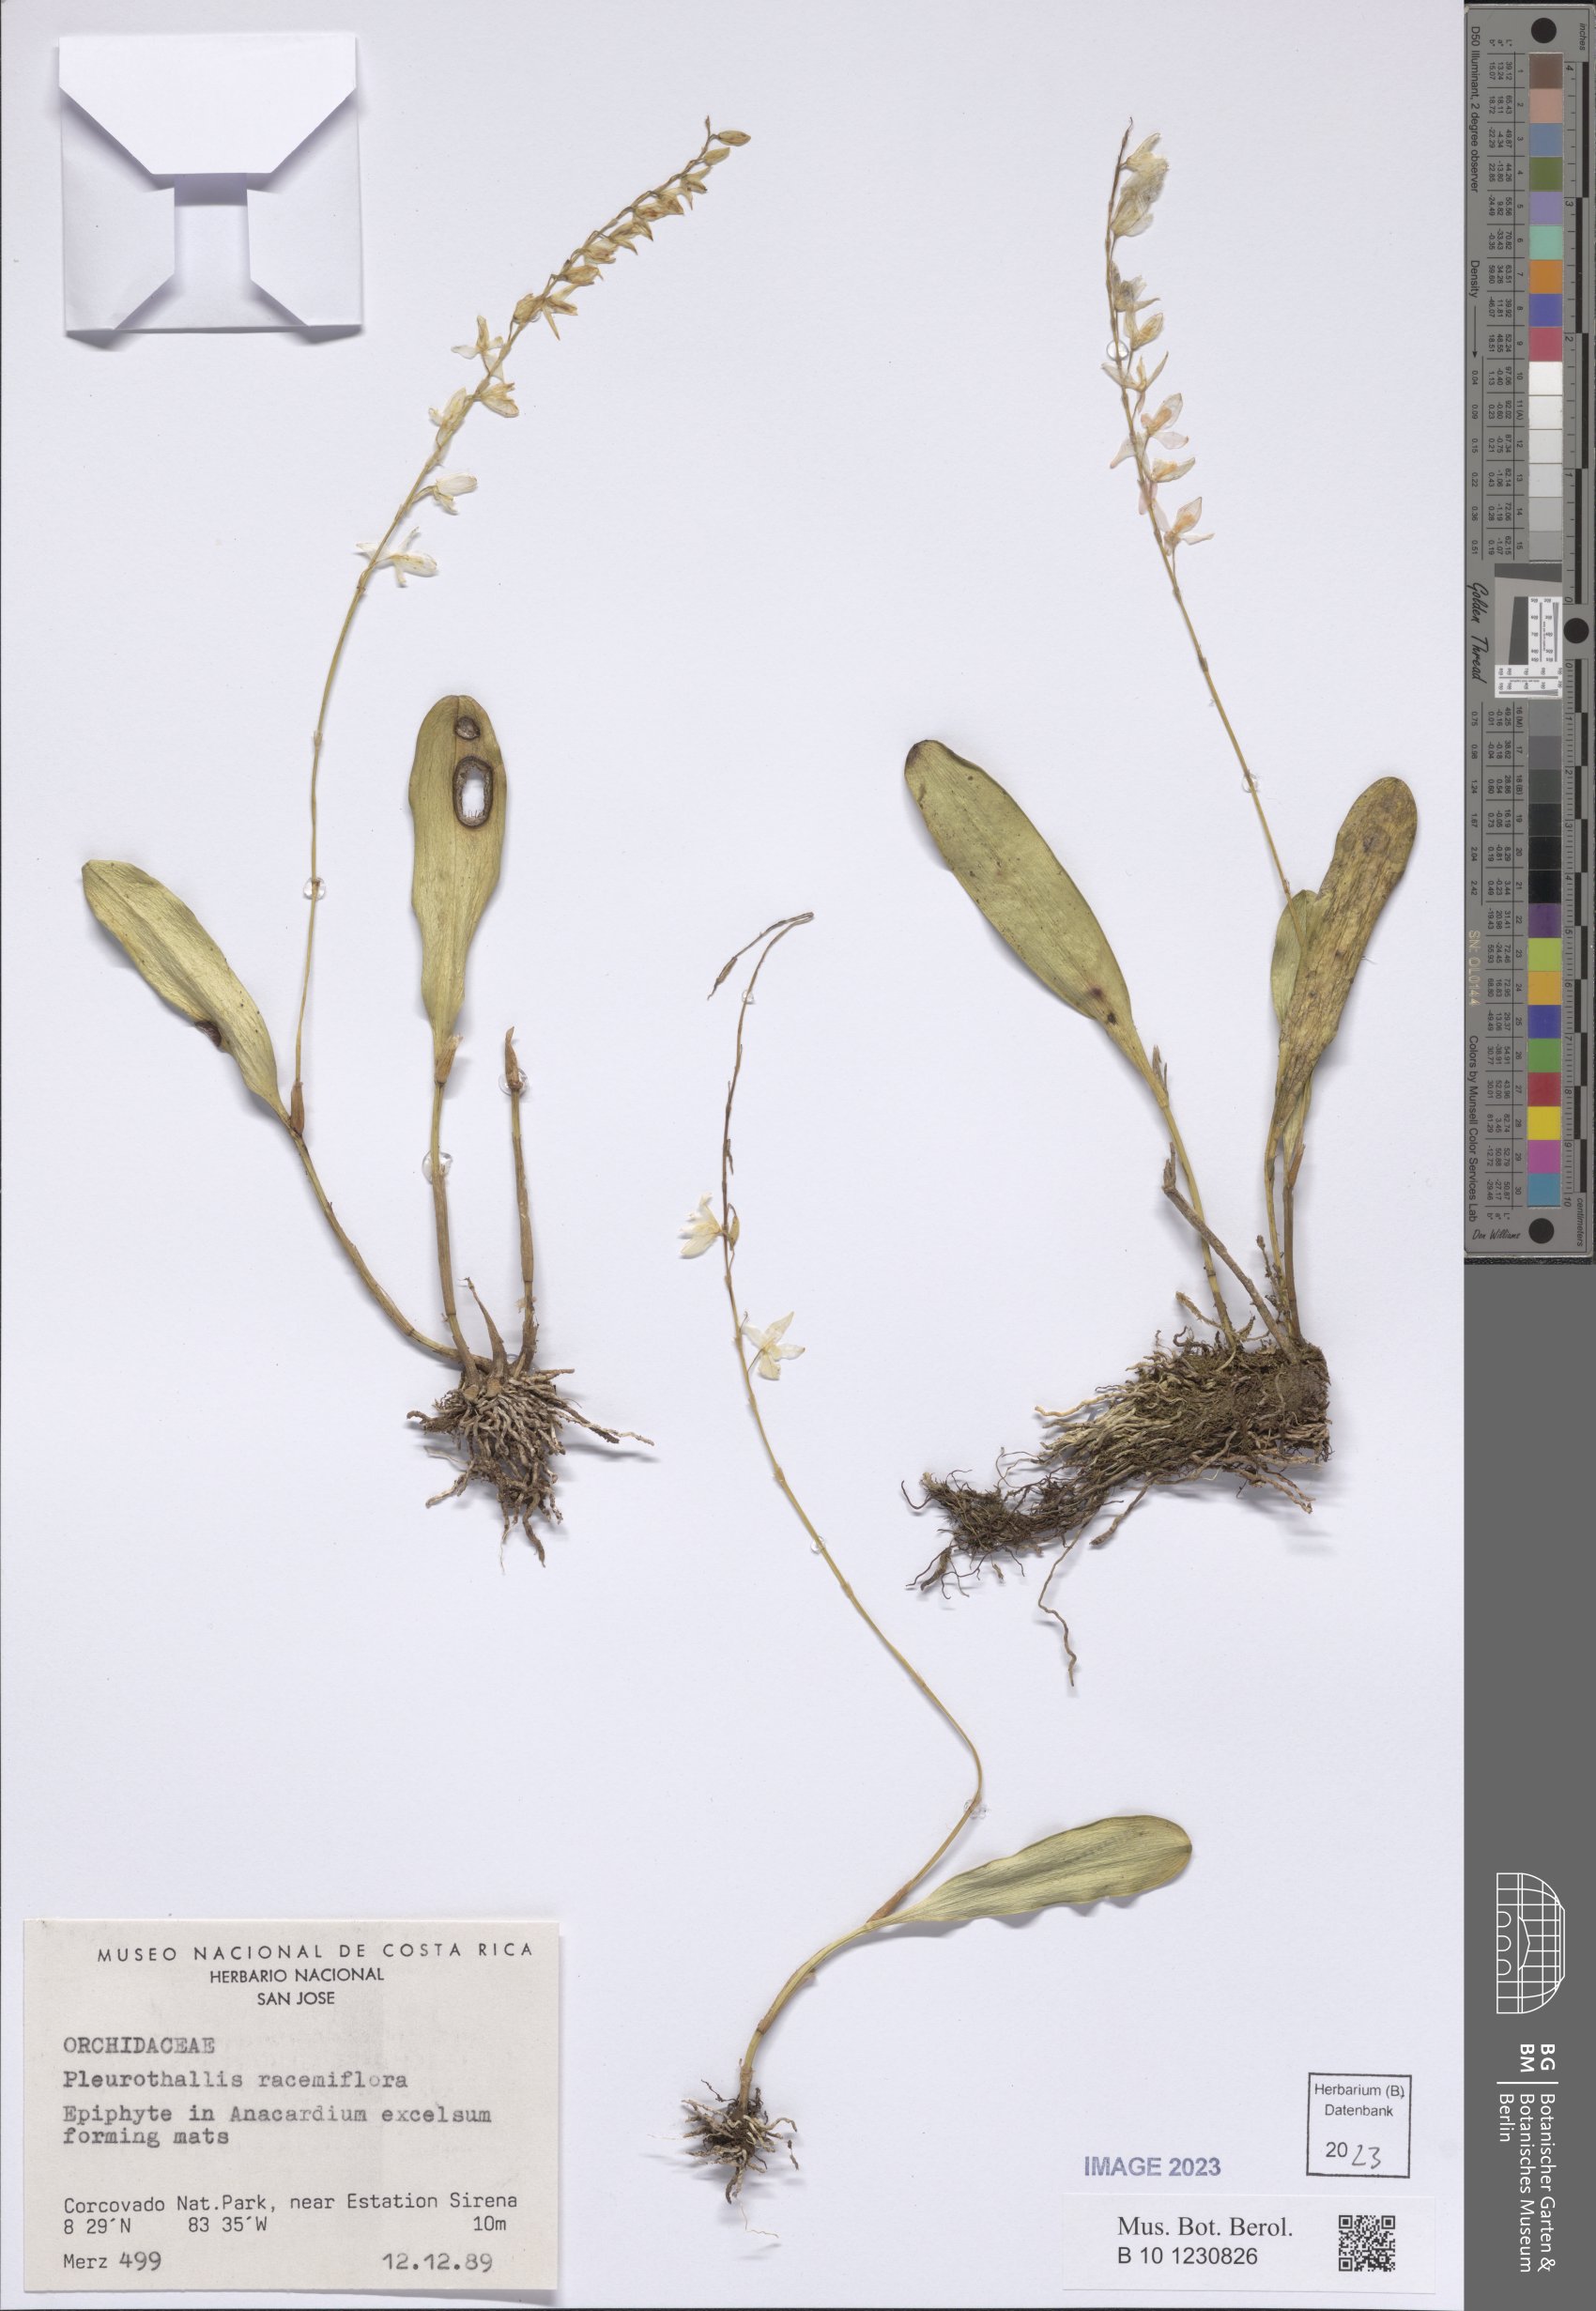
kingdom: Plantae
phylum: Tracheophyta
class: Liliopsida
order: Asparagales
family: Orchidaceae
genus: Stelis
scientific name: Stelis multirostris
